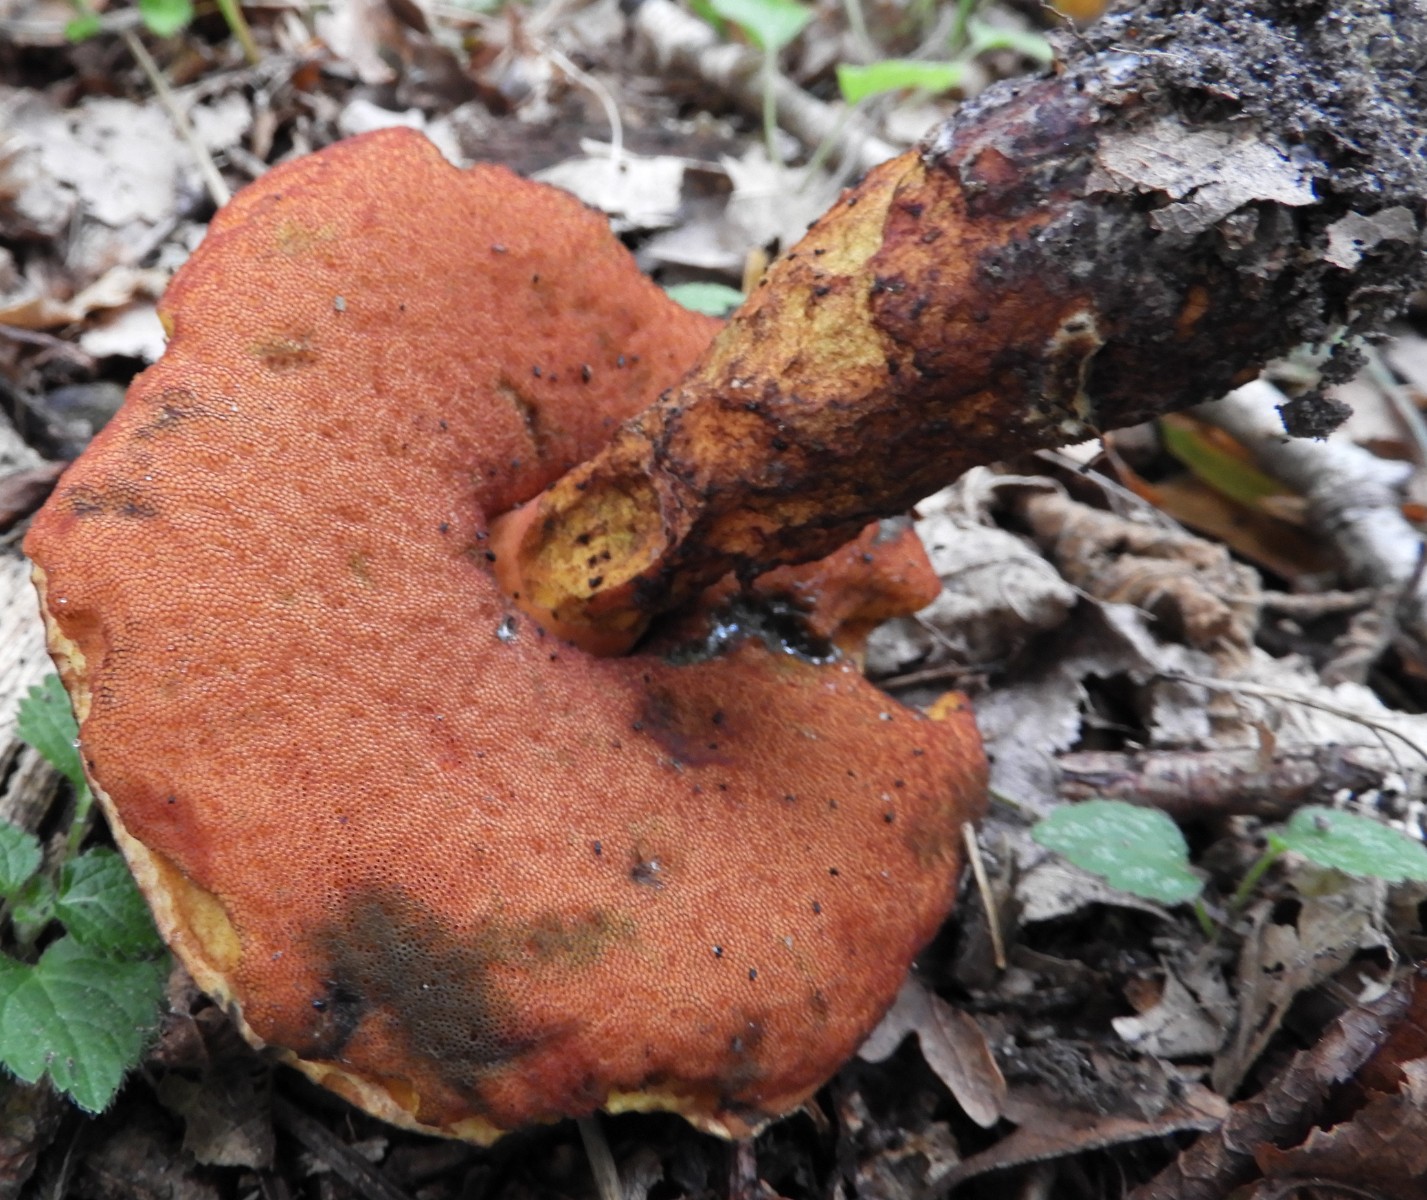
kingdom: Fungi
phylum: Basidiomycota
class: Agaricomycetes
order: Boletales
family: Boletaceae
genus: Neoboletus
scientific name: Neoboletus erythropus
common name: punktstokket indigorørhat
